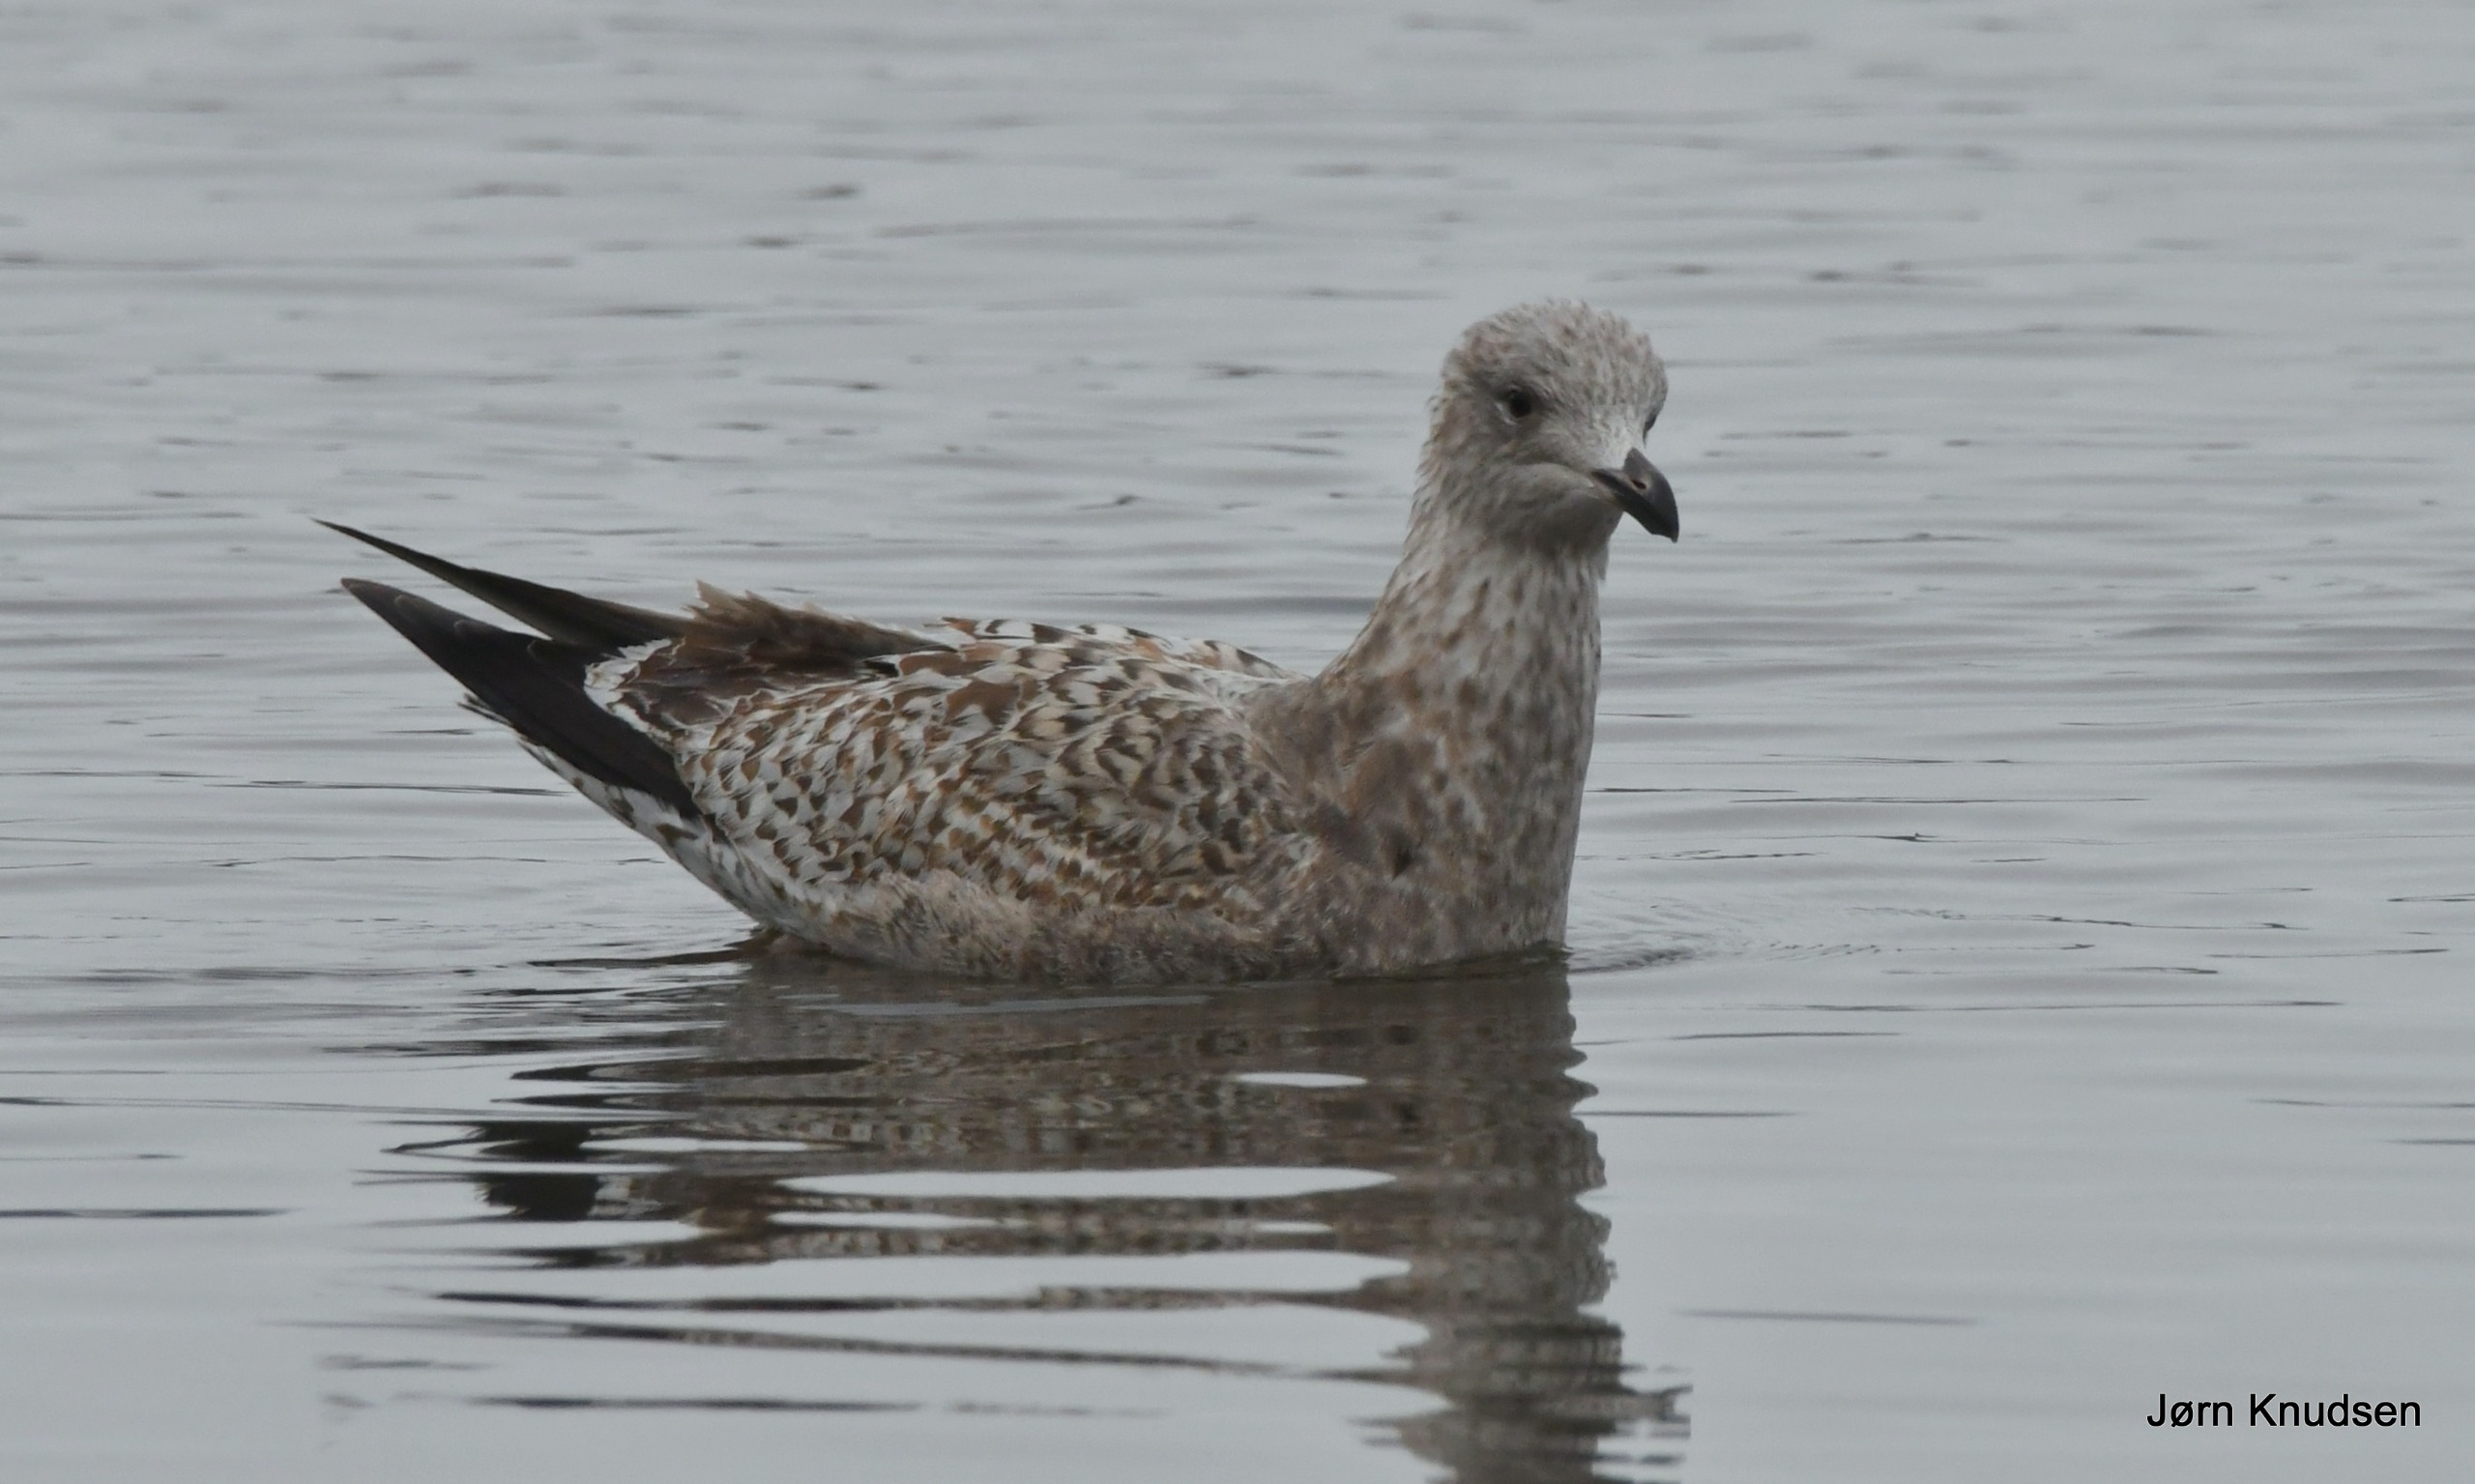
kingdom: Animalia
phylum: Chordata
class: Aves
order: Charadriiformes
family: Laridae
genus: Larus
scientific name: Larus argentatus
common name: Sølvmåge
